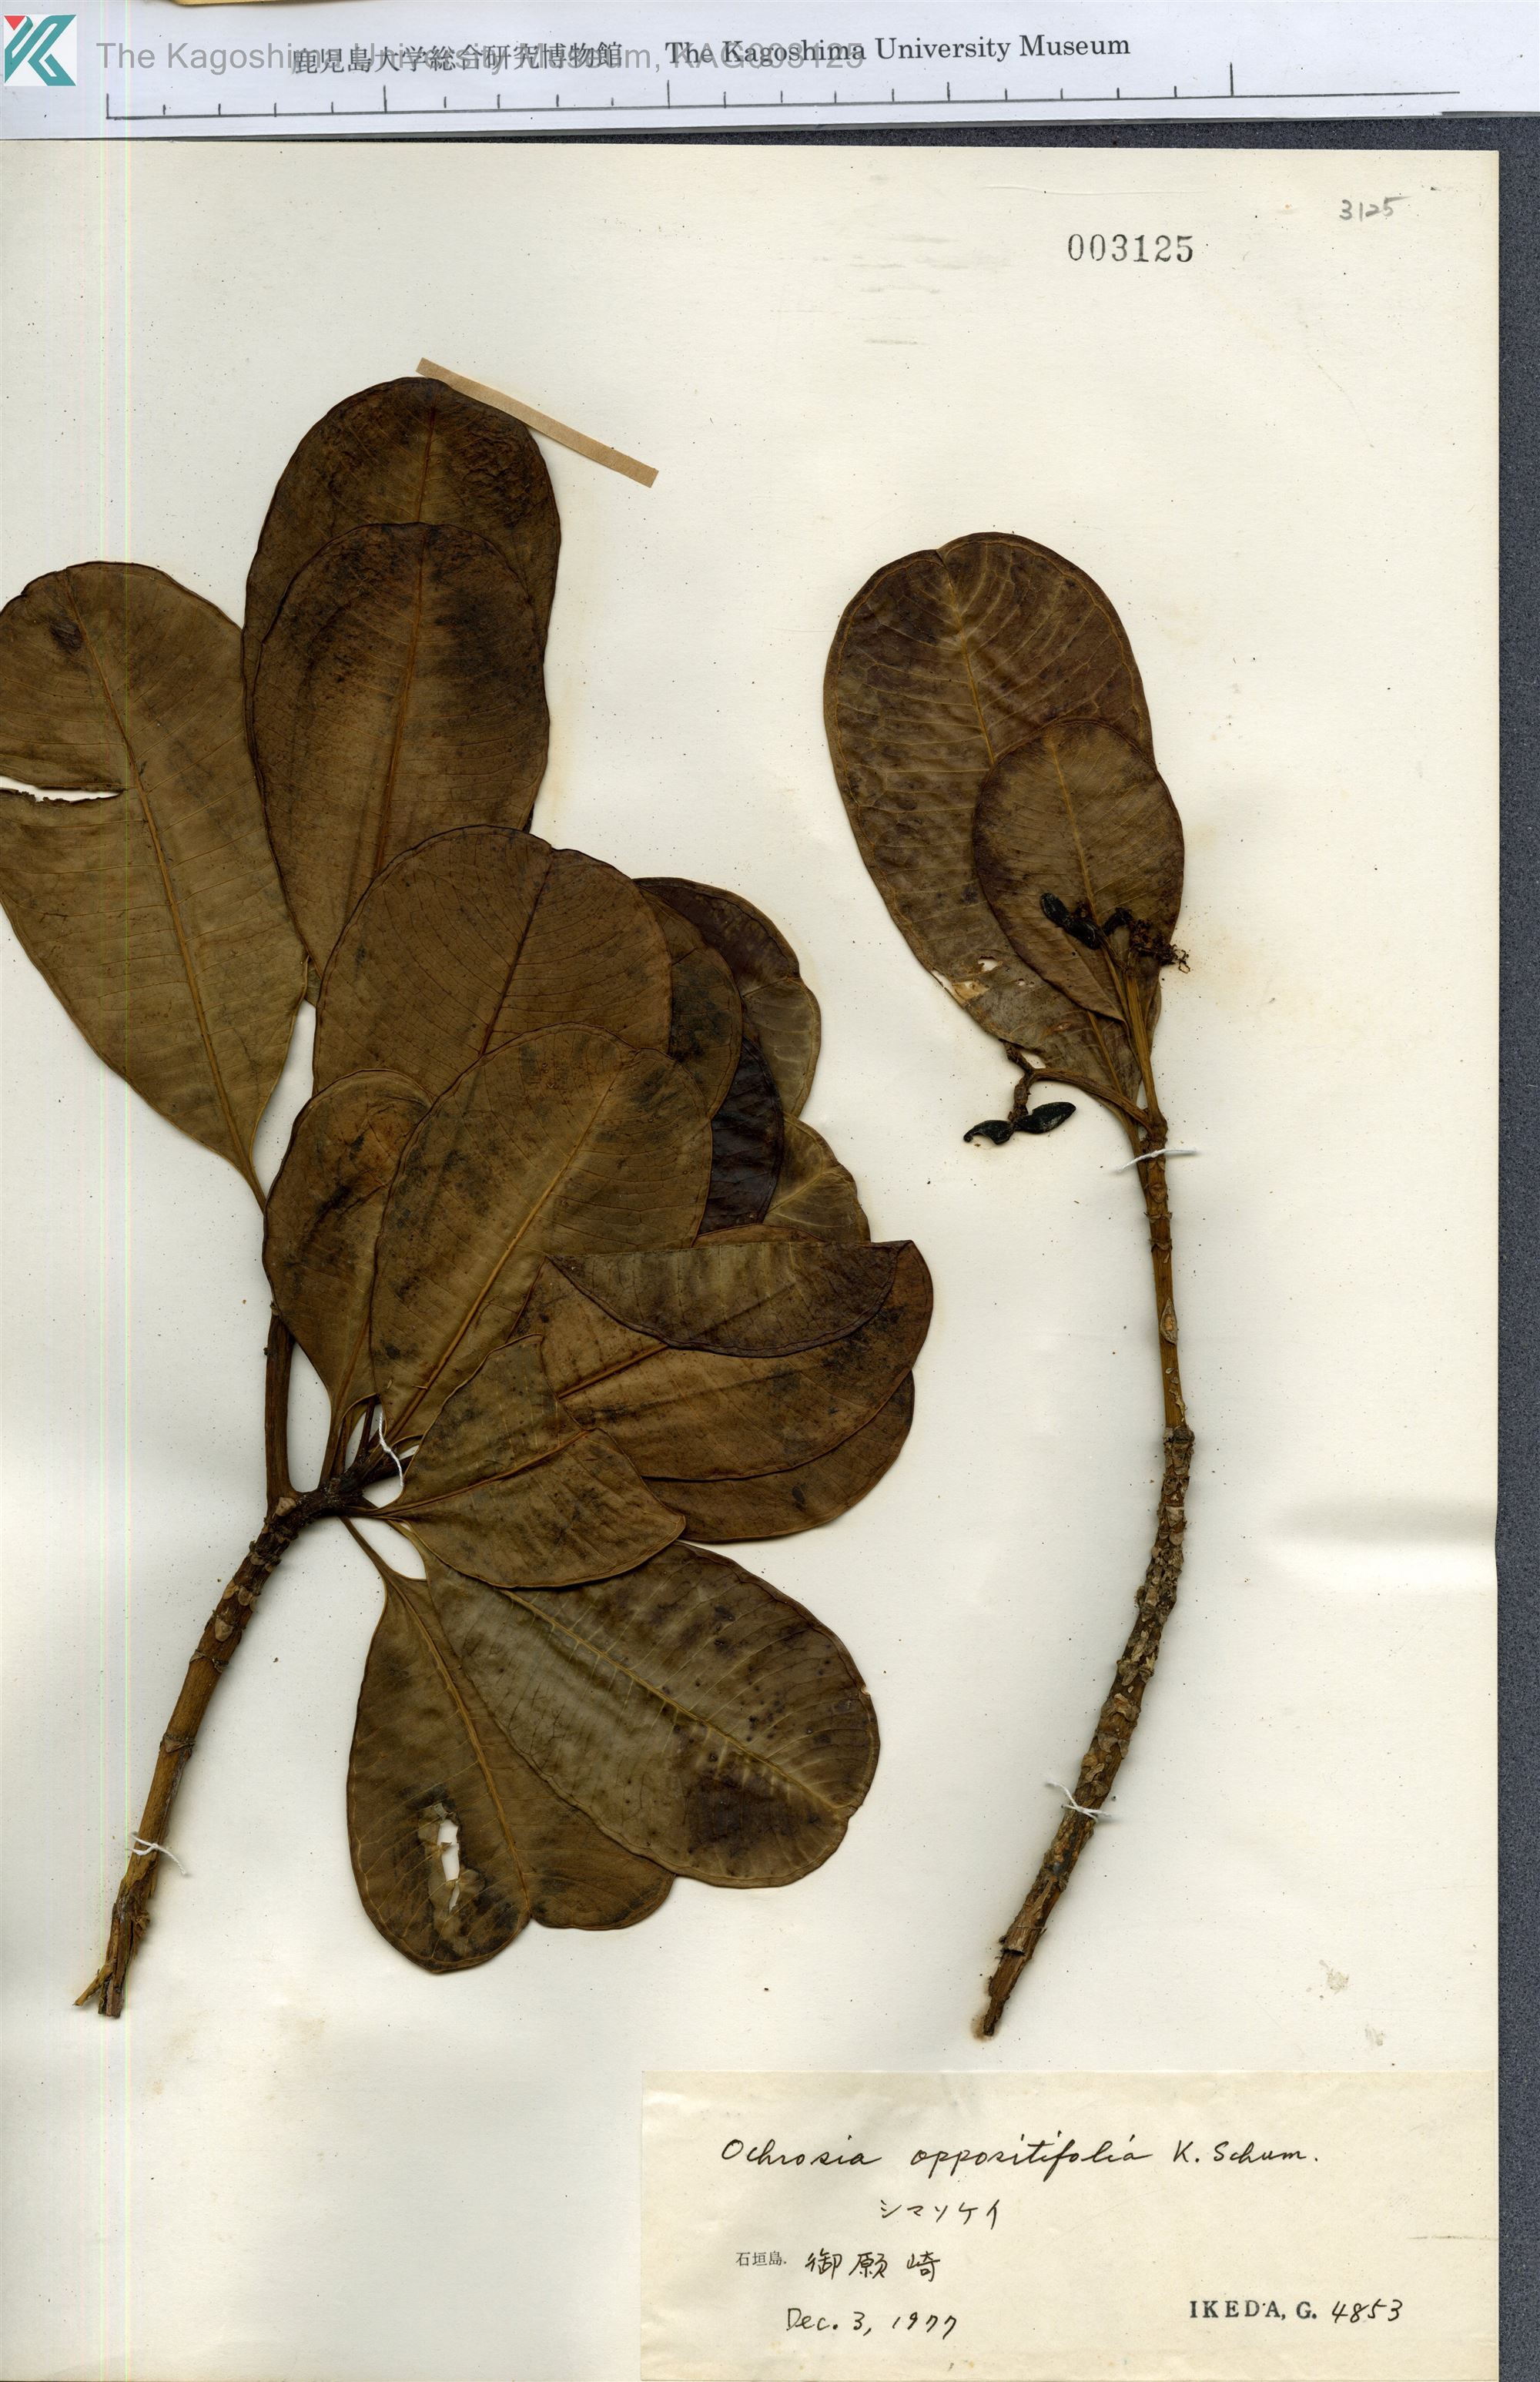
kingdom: Plantae
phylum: Tracheophyta
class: Magnoliopsida
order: Gentianales
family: Apocynaceae
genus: Ochrosia
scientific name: Ochrosia oppositifolia
